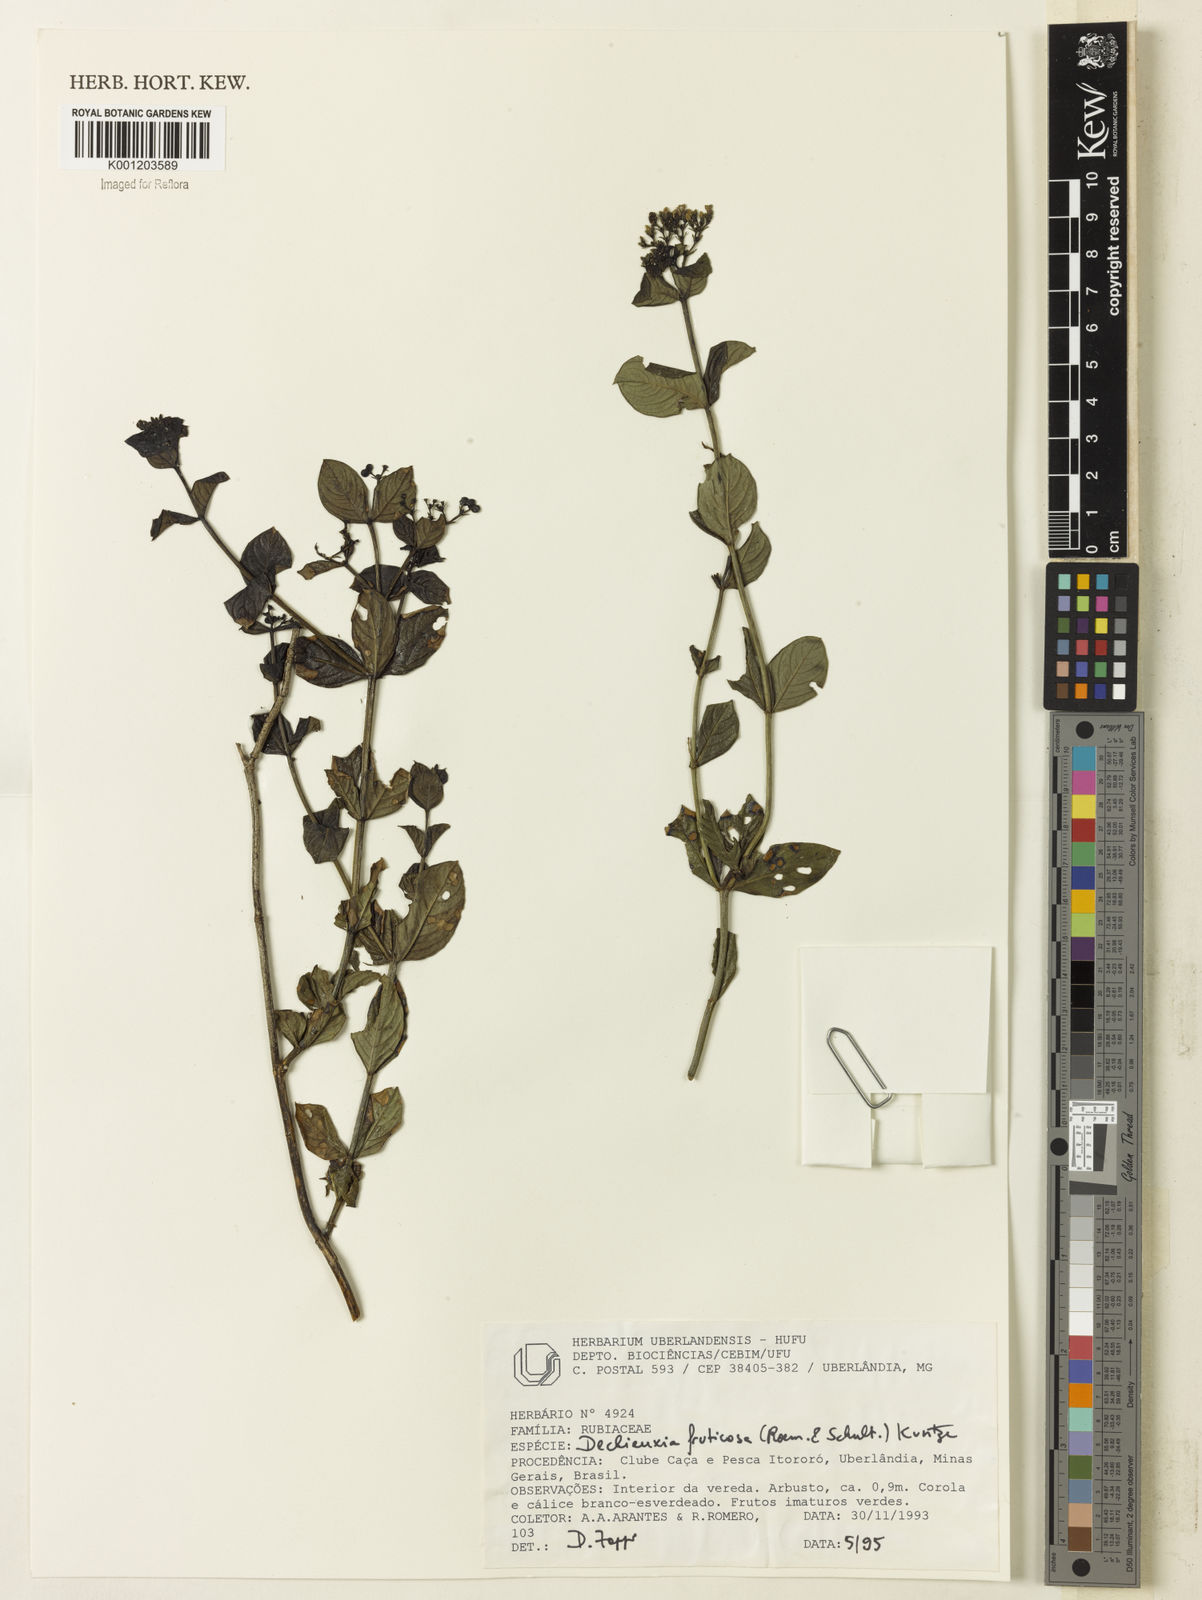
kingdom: Plantae
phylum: Tracheophyta
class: Magnoliopsida
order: Gentianales
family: Rubiaceae
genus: Declieuxia
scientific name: Declieuxia fruticosa
